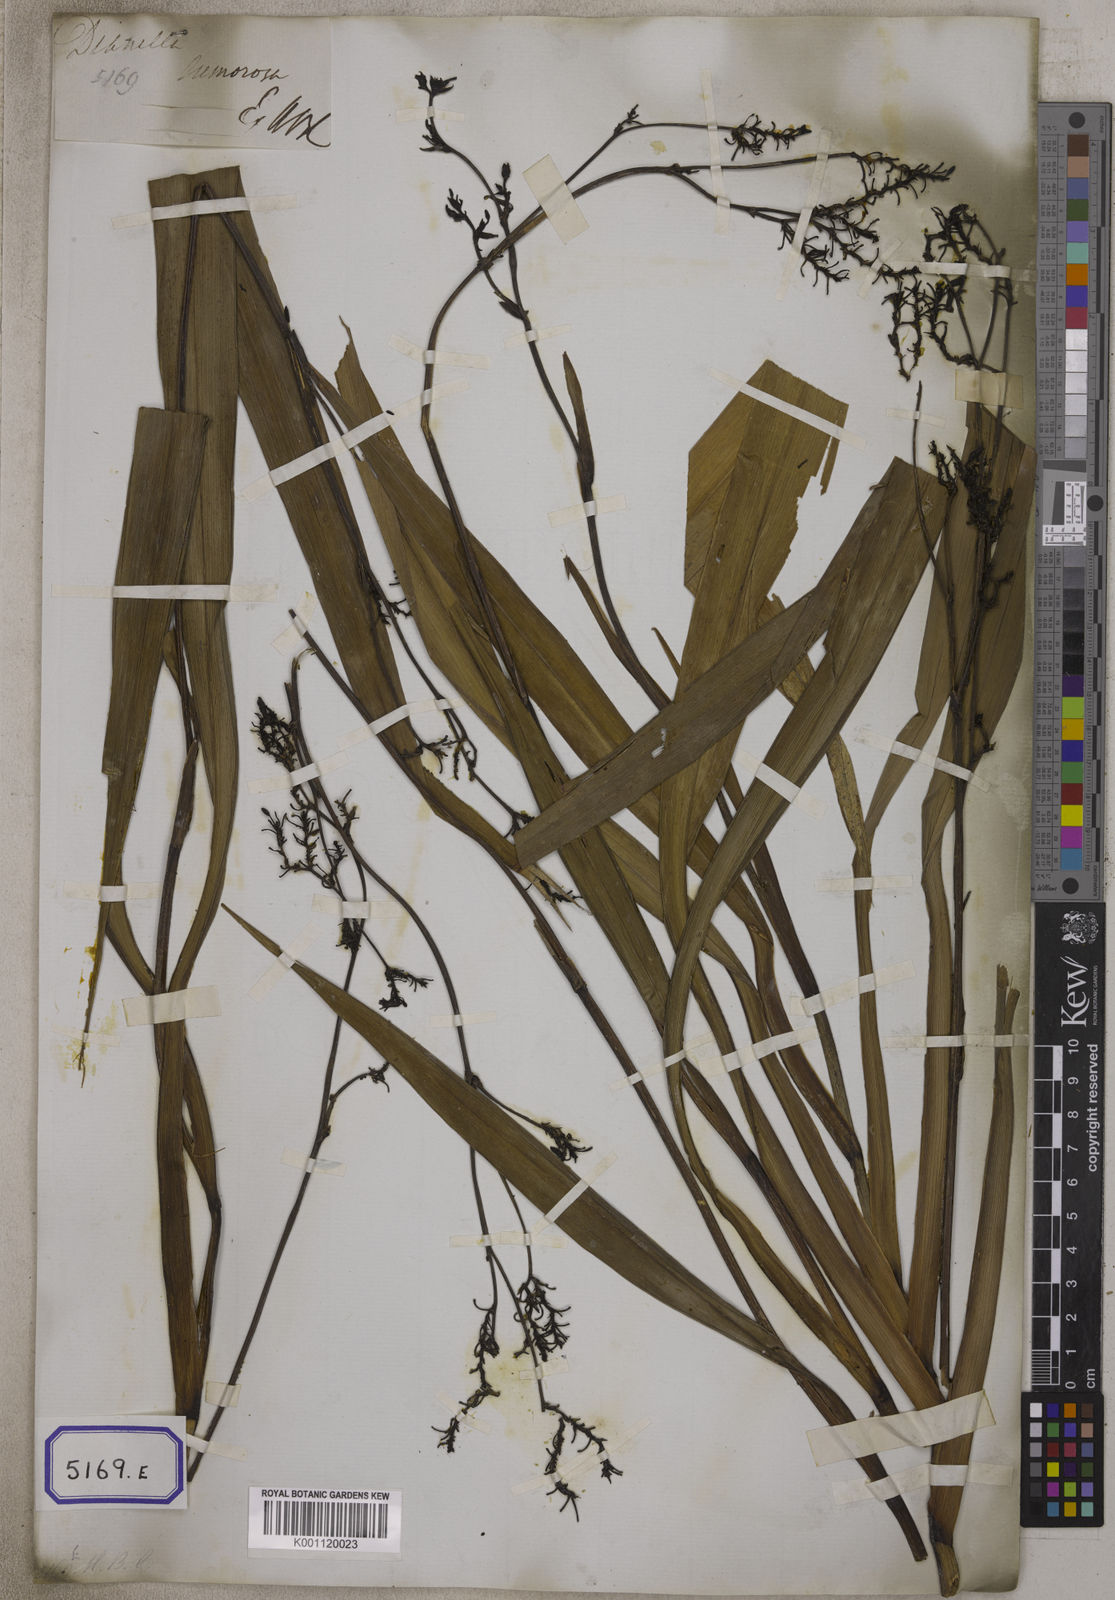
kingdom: Plantae
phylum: Tracheophyta
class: Liliopsida
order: Asparagales
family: Asphodelaceae
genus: Dianella
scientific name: Dianella ensifolia
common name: New zealand lilyplant
